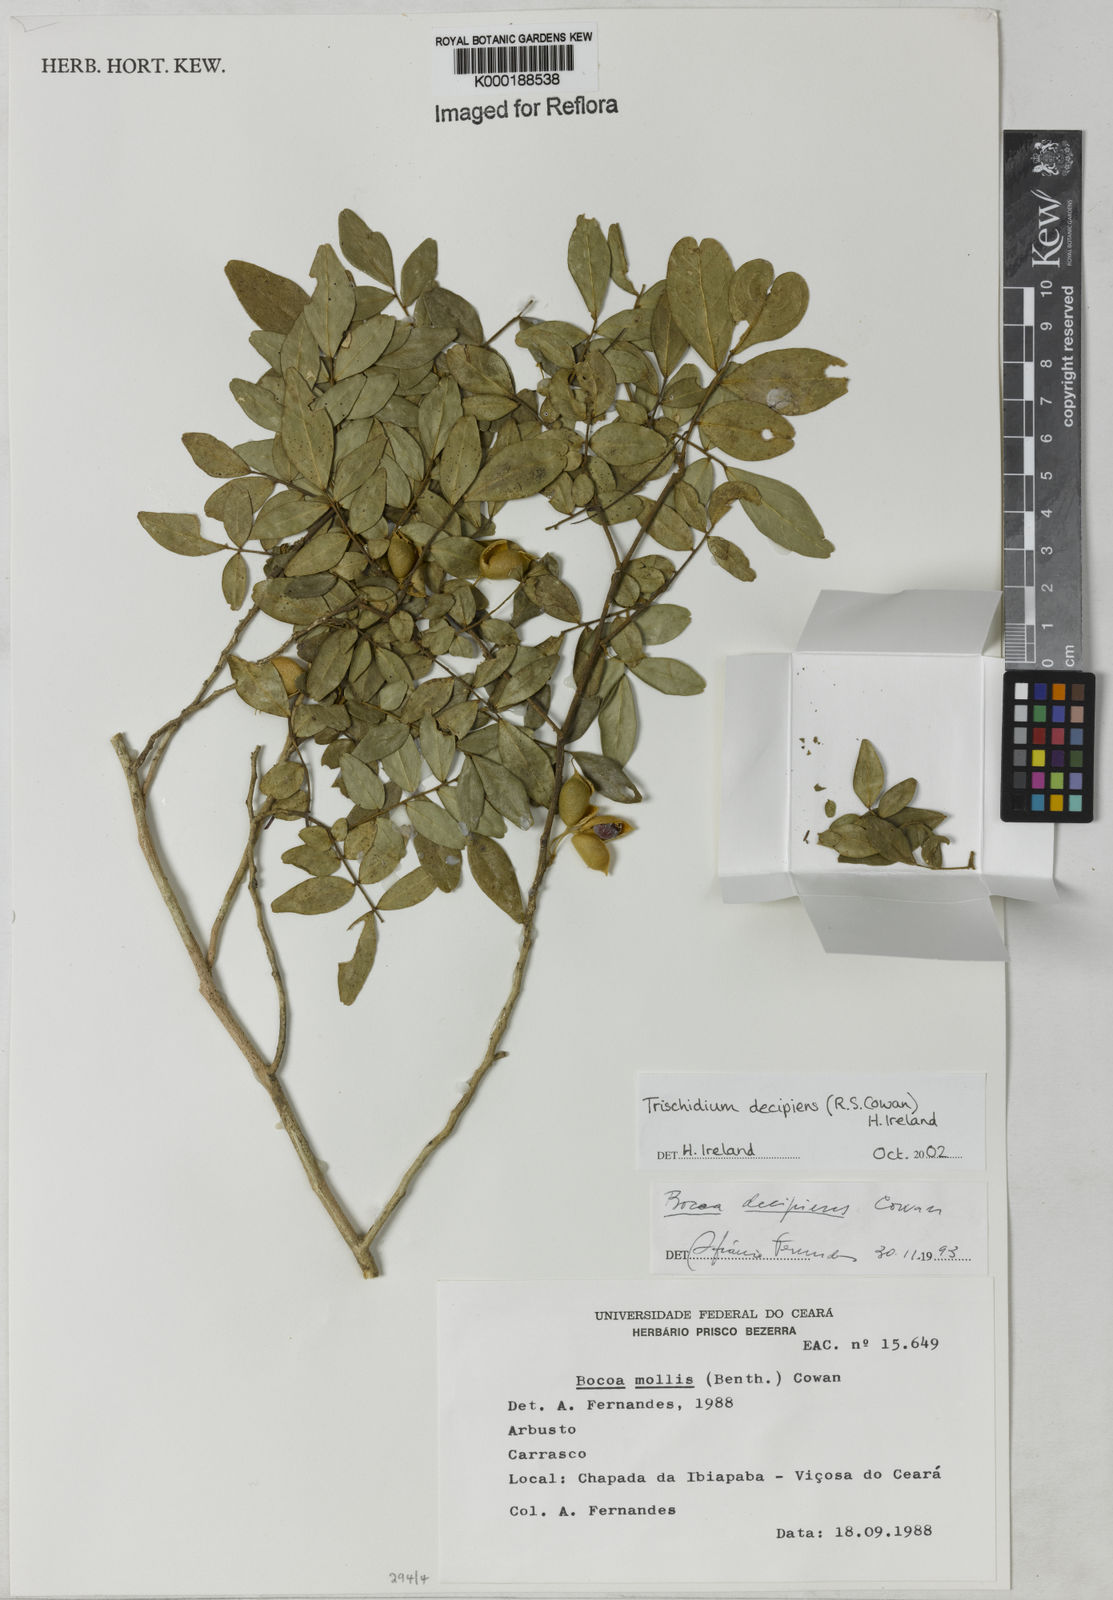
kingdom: Plantae
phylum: Tracheophyta
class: Magnoliopsida
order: Fabales
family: Fabaceae
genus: Trischidium
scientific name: Trischidium
